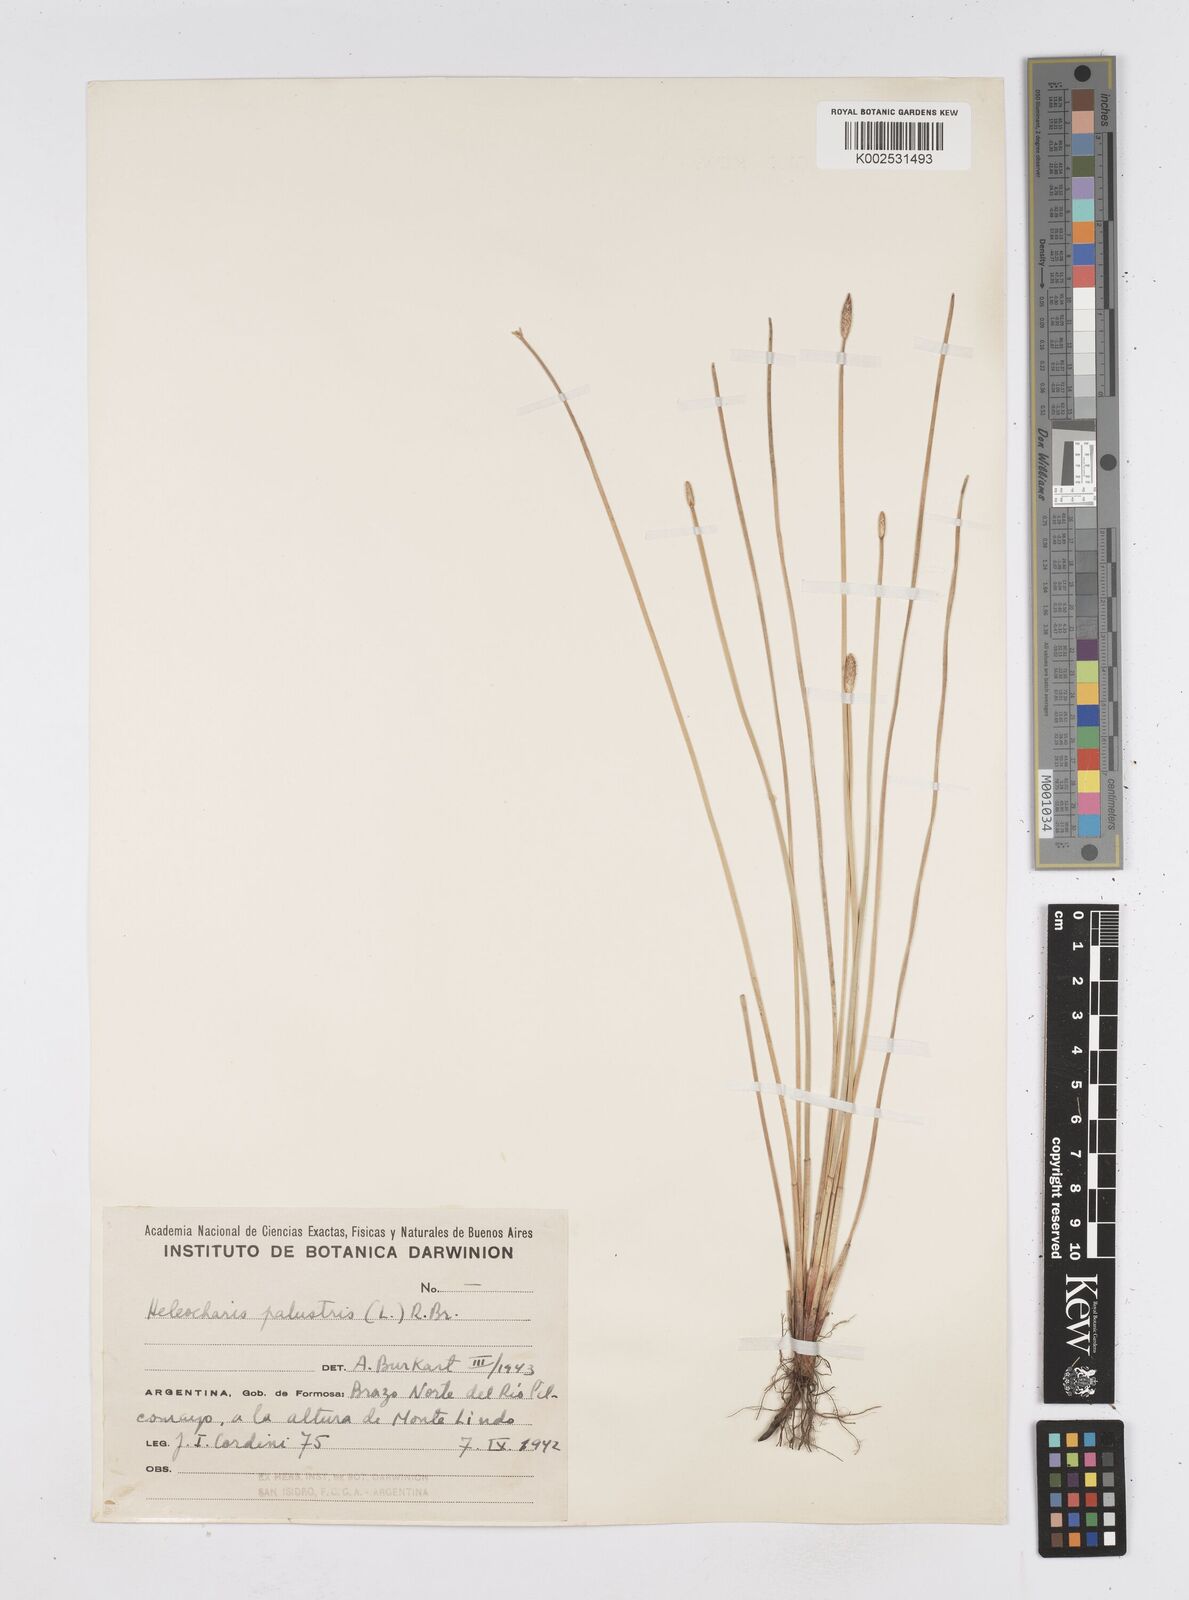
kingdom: Plantae
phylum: Tracheophyta
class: Liliopsida
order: Poales
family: Cyperaceae
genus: Eleocharis
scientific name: Eleocharis palustris
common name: Common spike-rush
